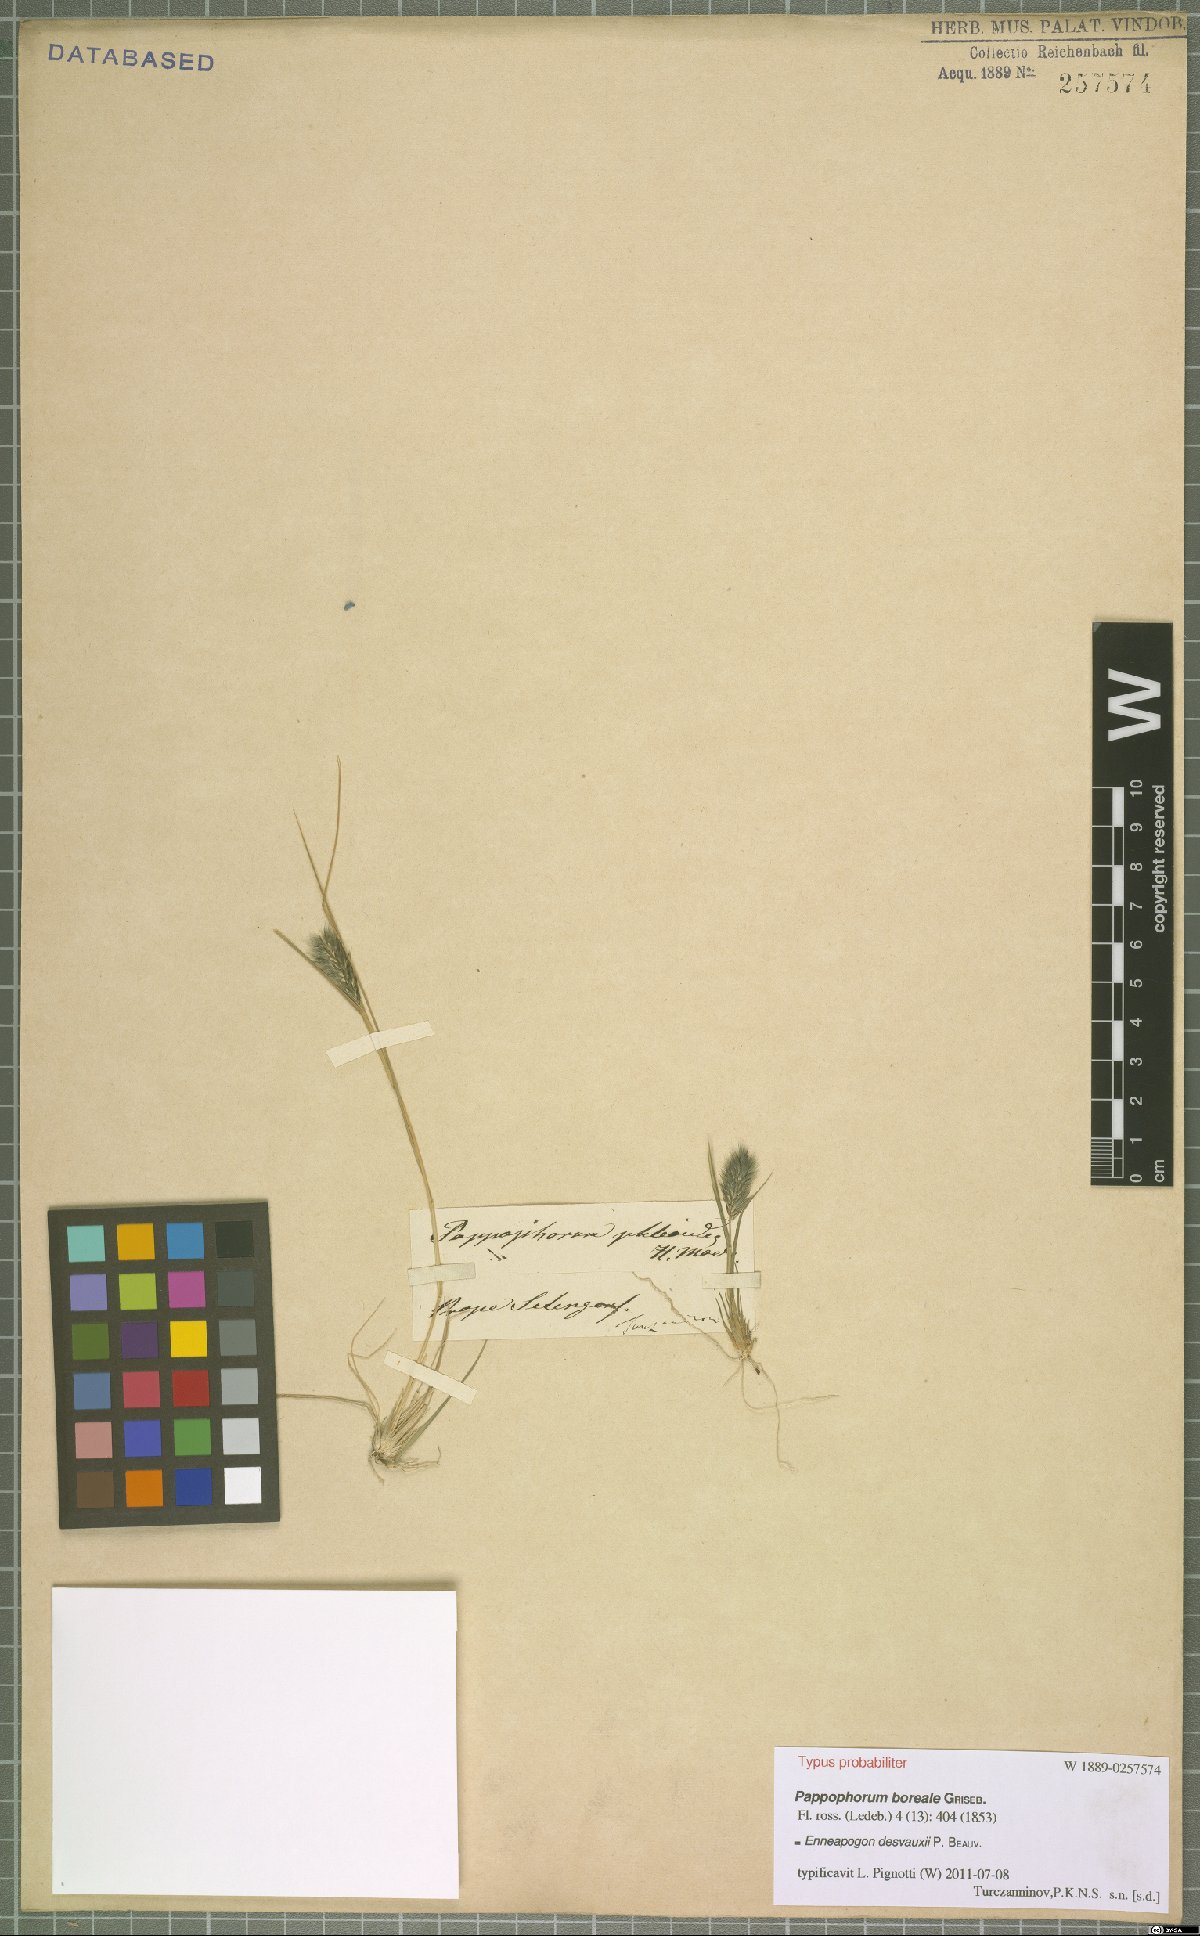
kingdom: Plantae
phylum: Tracheophyta
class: Liliopsida
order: Poales
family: Poaceae
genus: Enneapogon
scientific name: Enneapogon desvauxii
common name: Feather pappus grass
